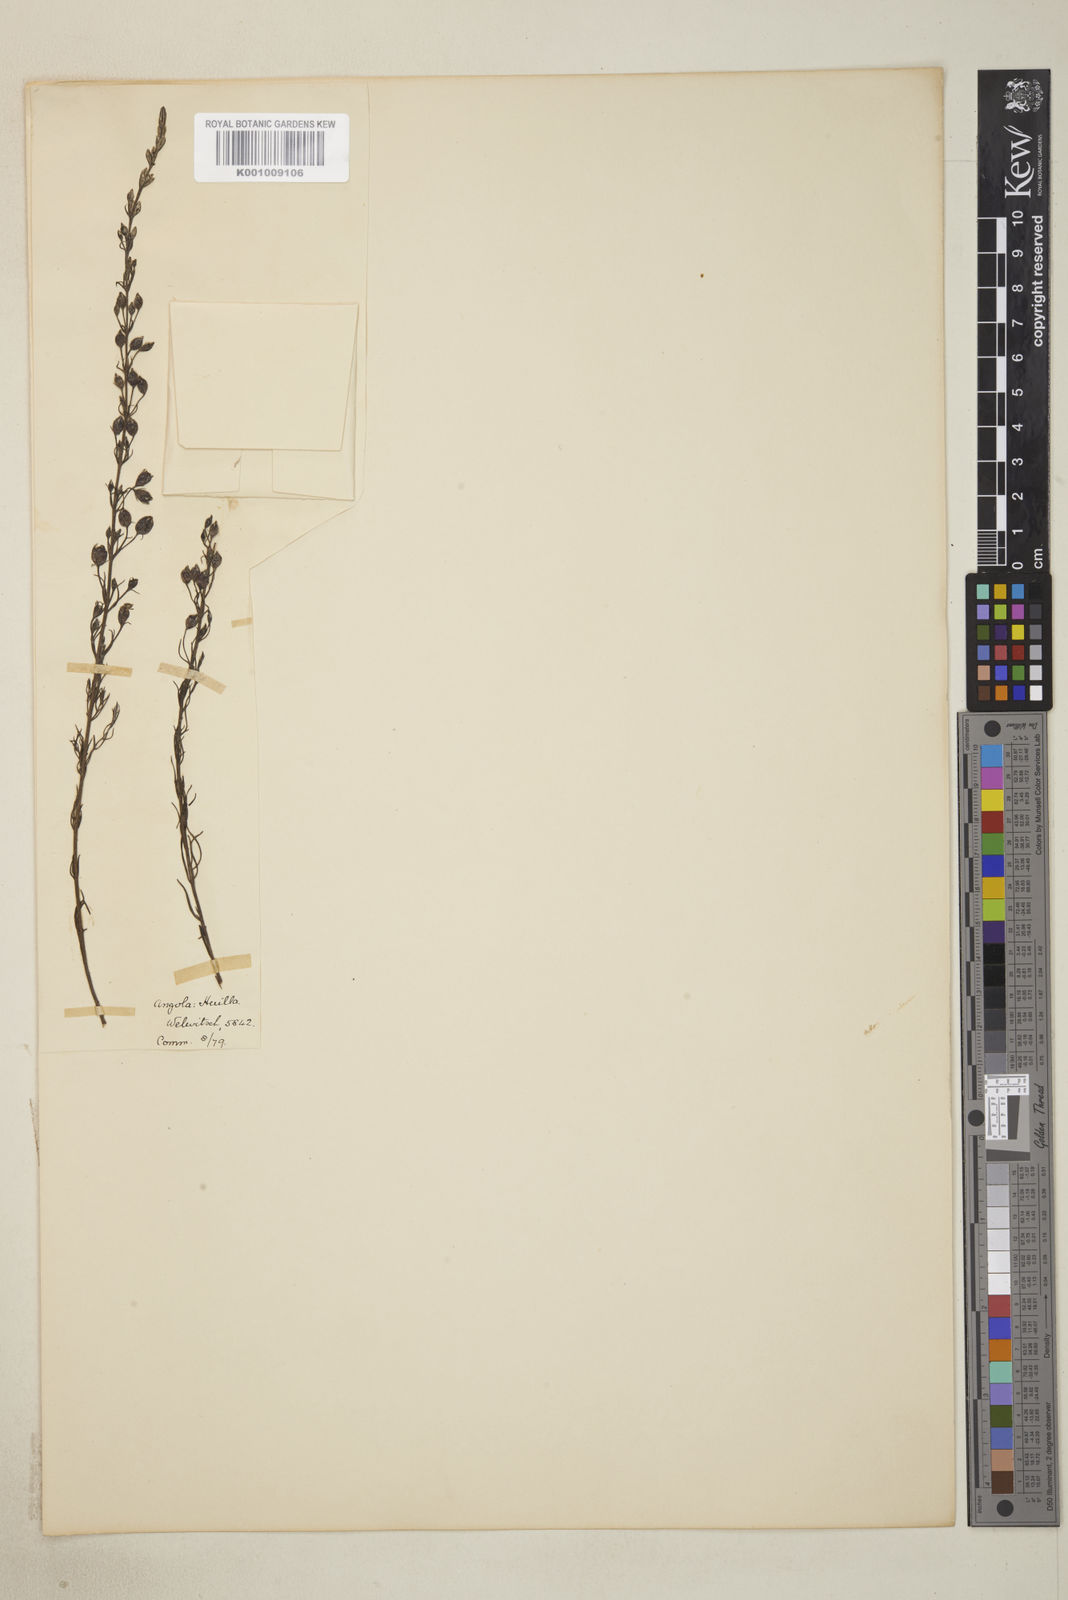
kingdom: Plantae
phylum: Tracheophyta
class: Magnoliopsida
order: Lamiales
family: Orobanchaceae
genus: Sopubia
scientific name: Sopubia karaguensis
